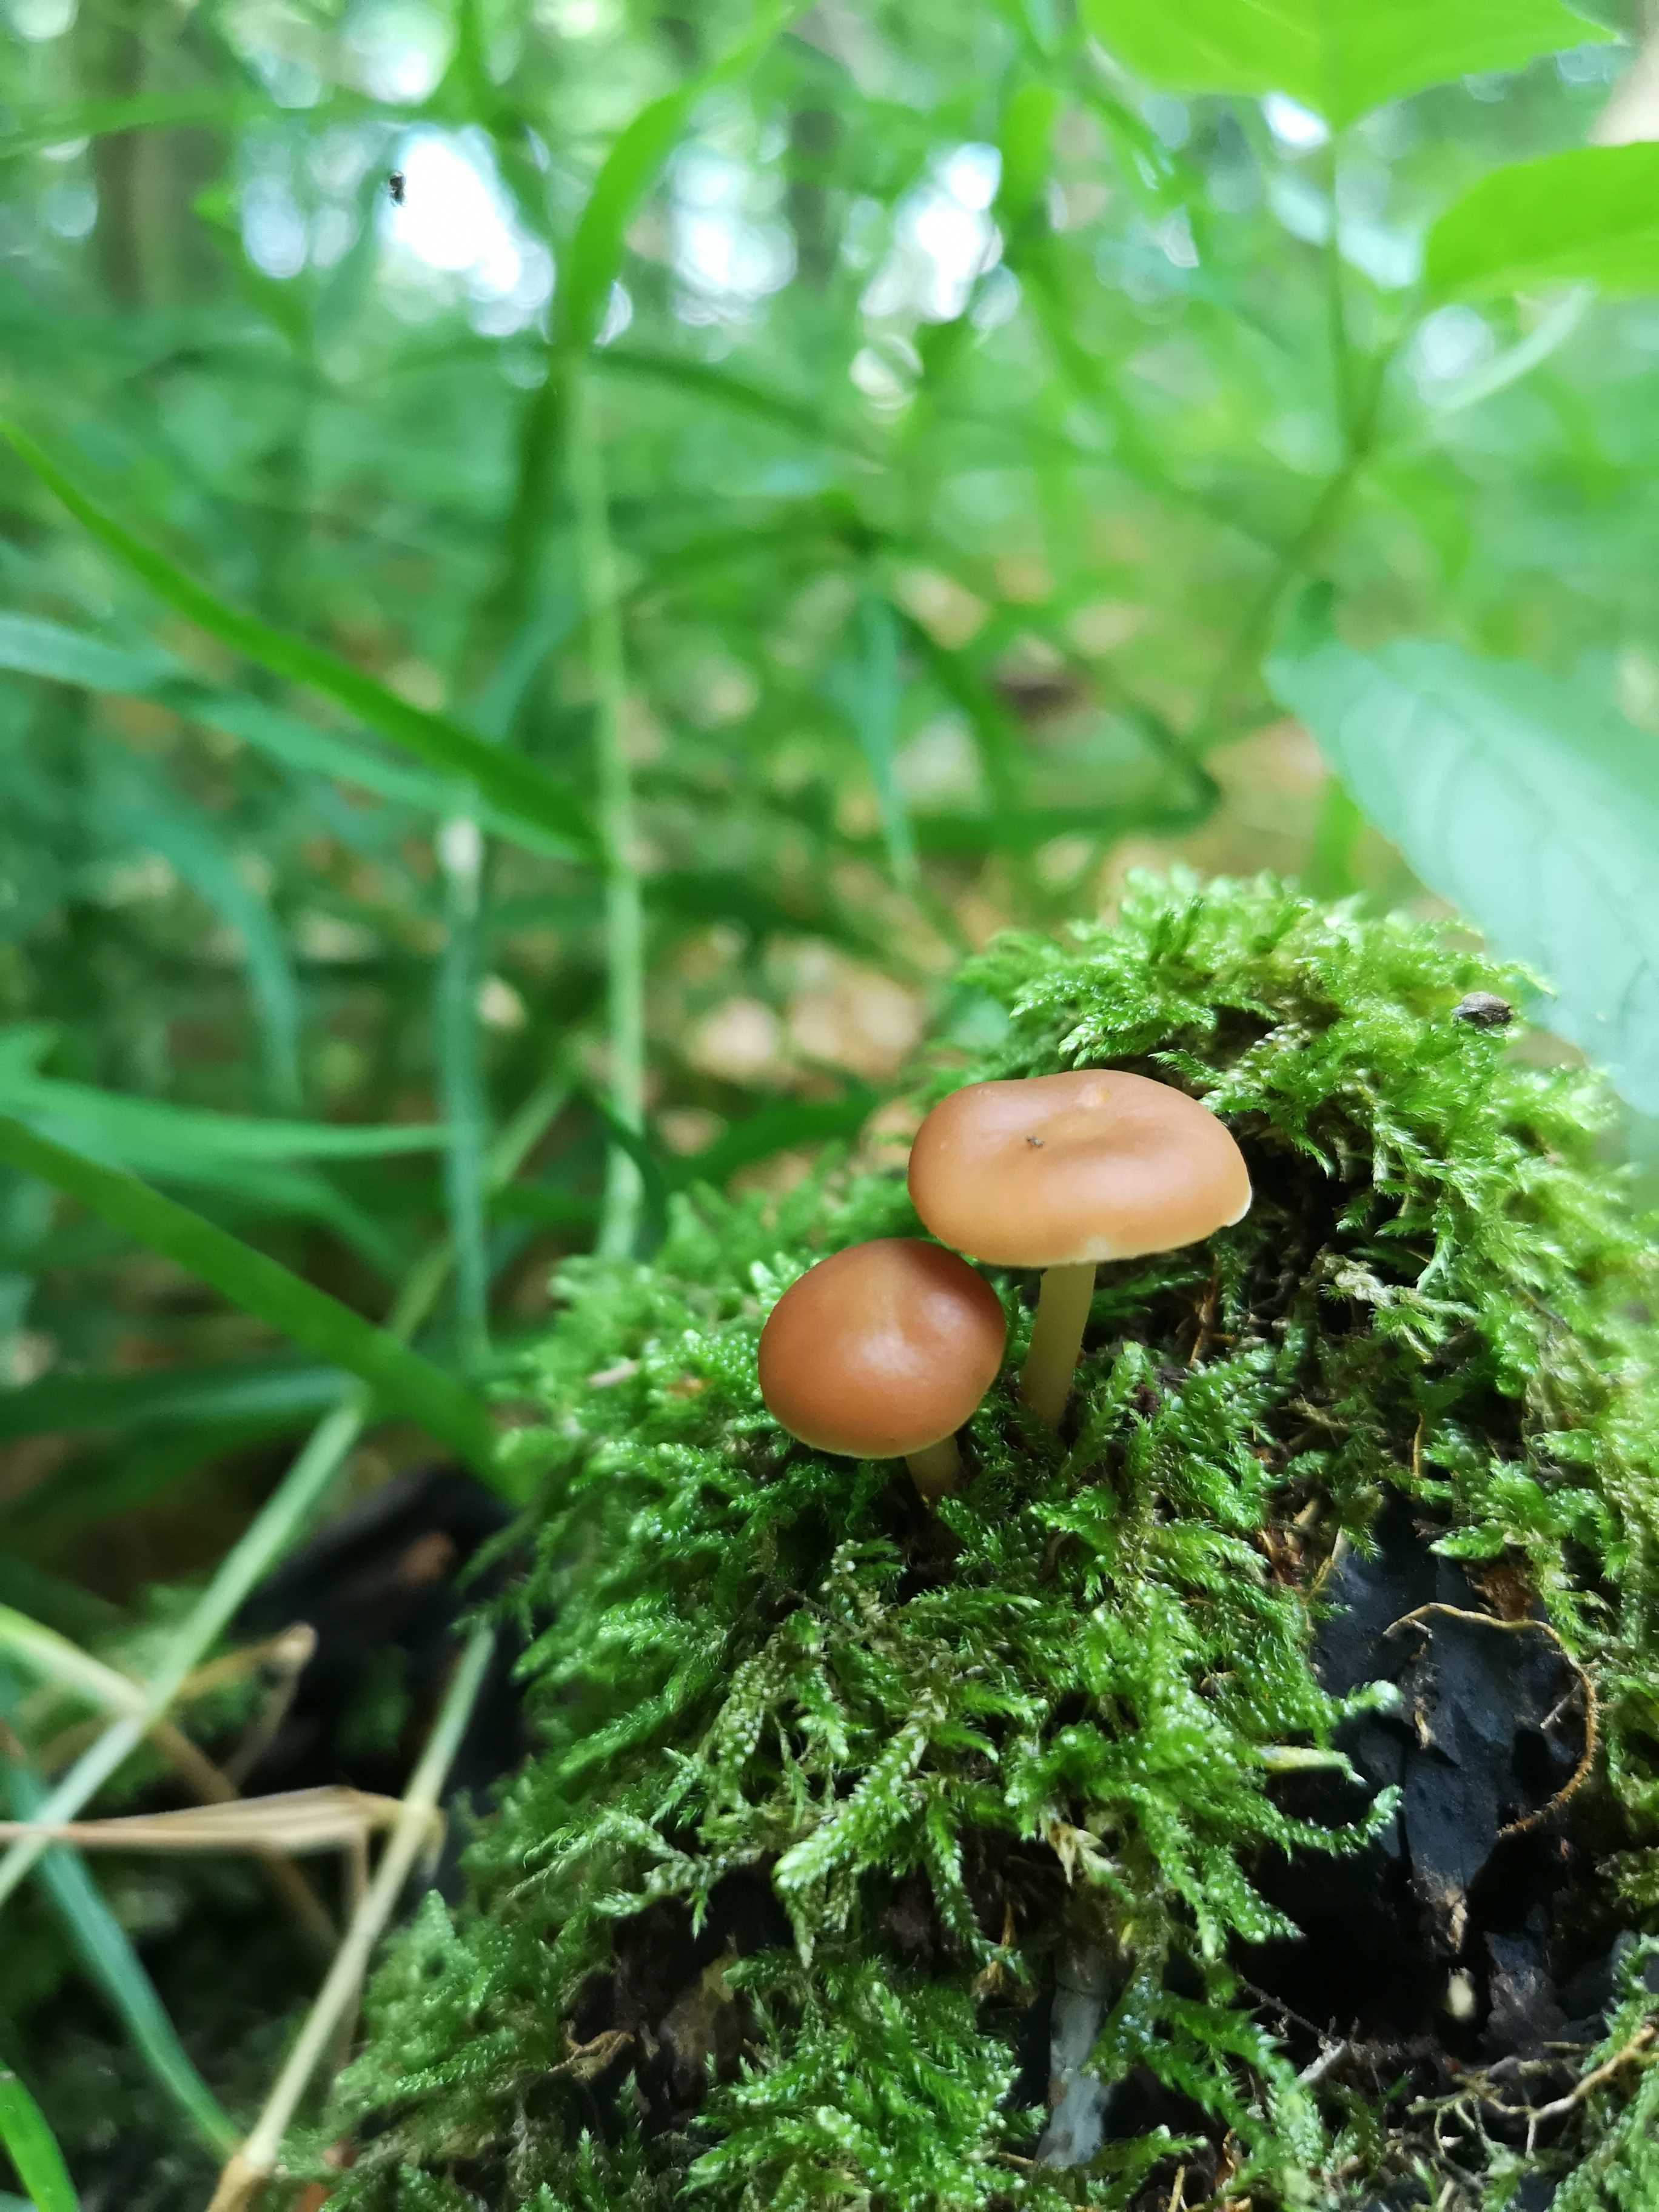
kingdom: Fungi
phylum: Basidiomycota
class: Agaricomycetes
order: Agaricales
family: Omphalotaceae
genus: Gymnopus
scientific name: Gymnopus
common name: fladhat
